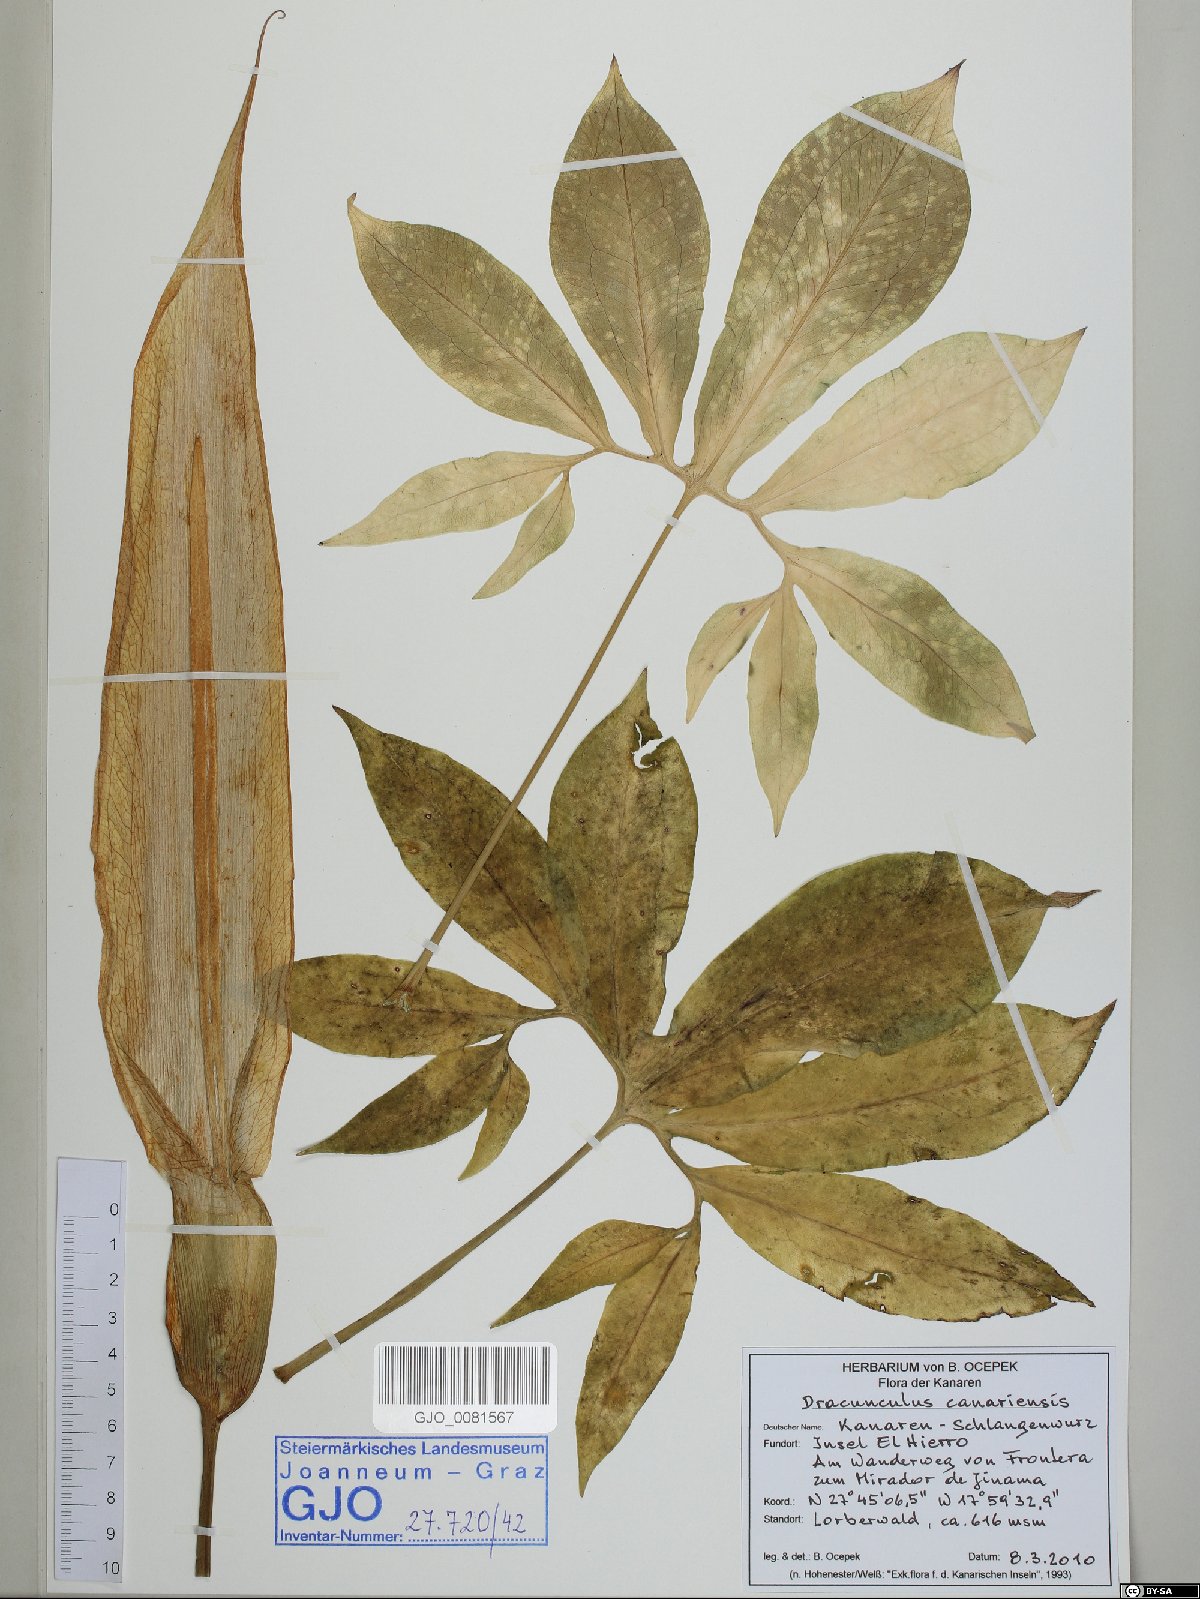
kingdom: Plantae
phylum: Tracheophyta
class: Liliopsida
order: Alismatales
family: Araceae
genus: Dracunculus
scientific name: Dracunculus canariensis
